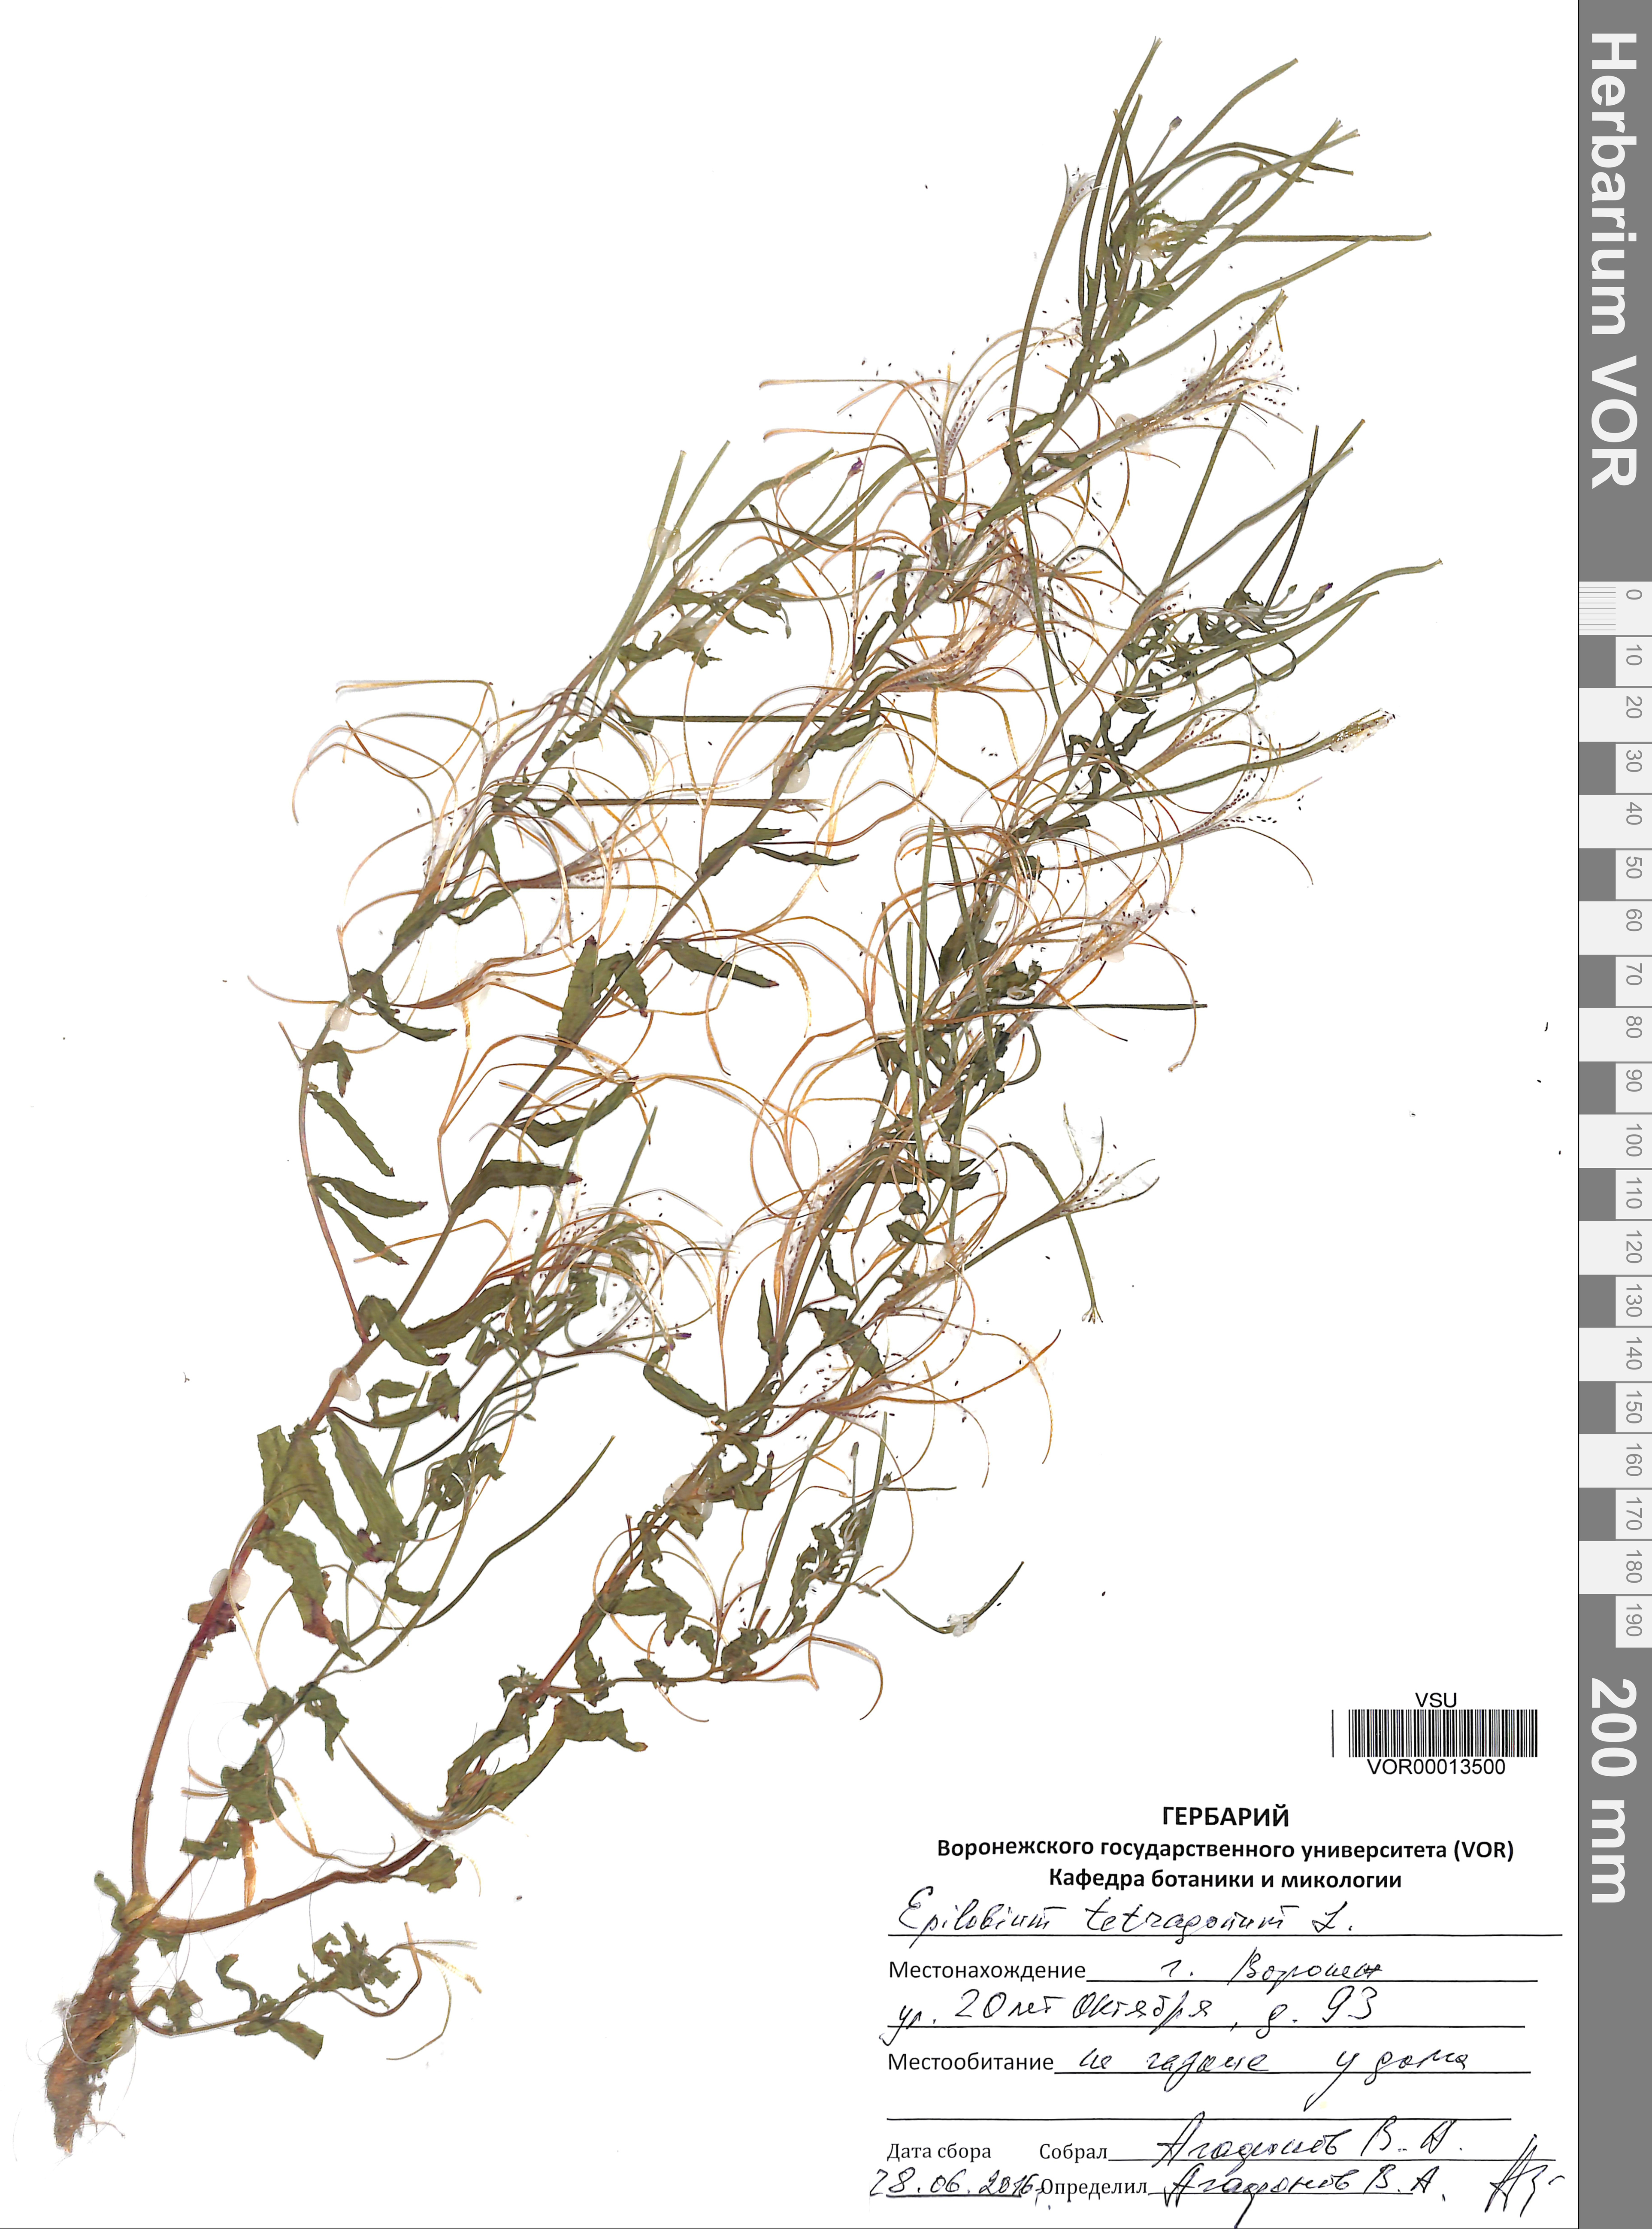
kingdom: Plantae
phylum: Tracheophyta
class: Magnoliopsida
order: Myrtales
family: Onagraceae
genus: Epilobium
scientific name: Epilobium tetragonum
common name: Square-stemmed willowherb
